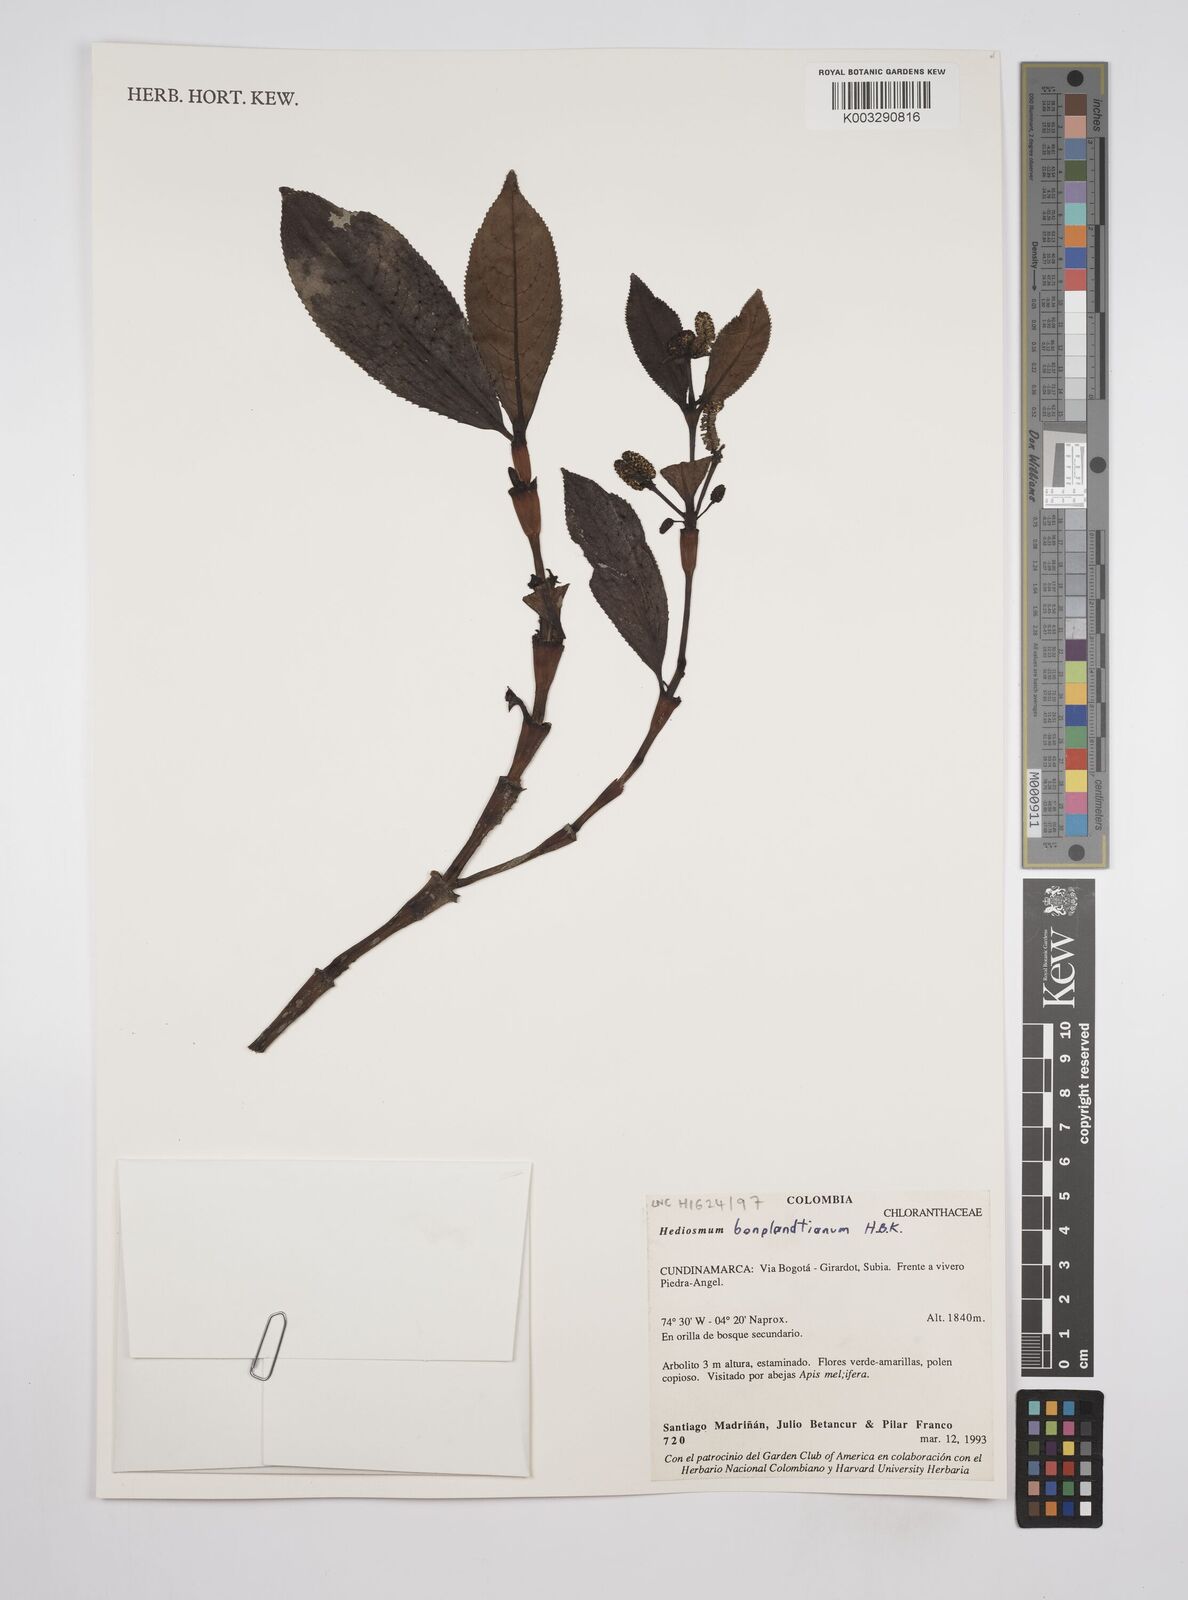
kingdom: Plantae
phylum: Tracheophyta
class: Magnoliopsida
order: Chloranthales
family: Chloranthaceae
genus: Hedyosmum
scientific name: Hedyosmum
